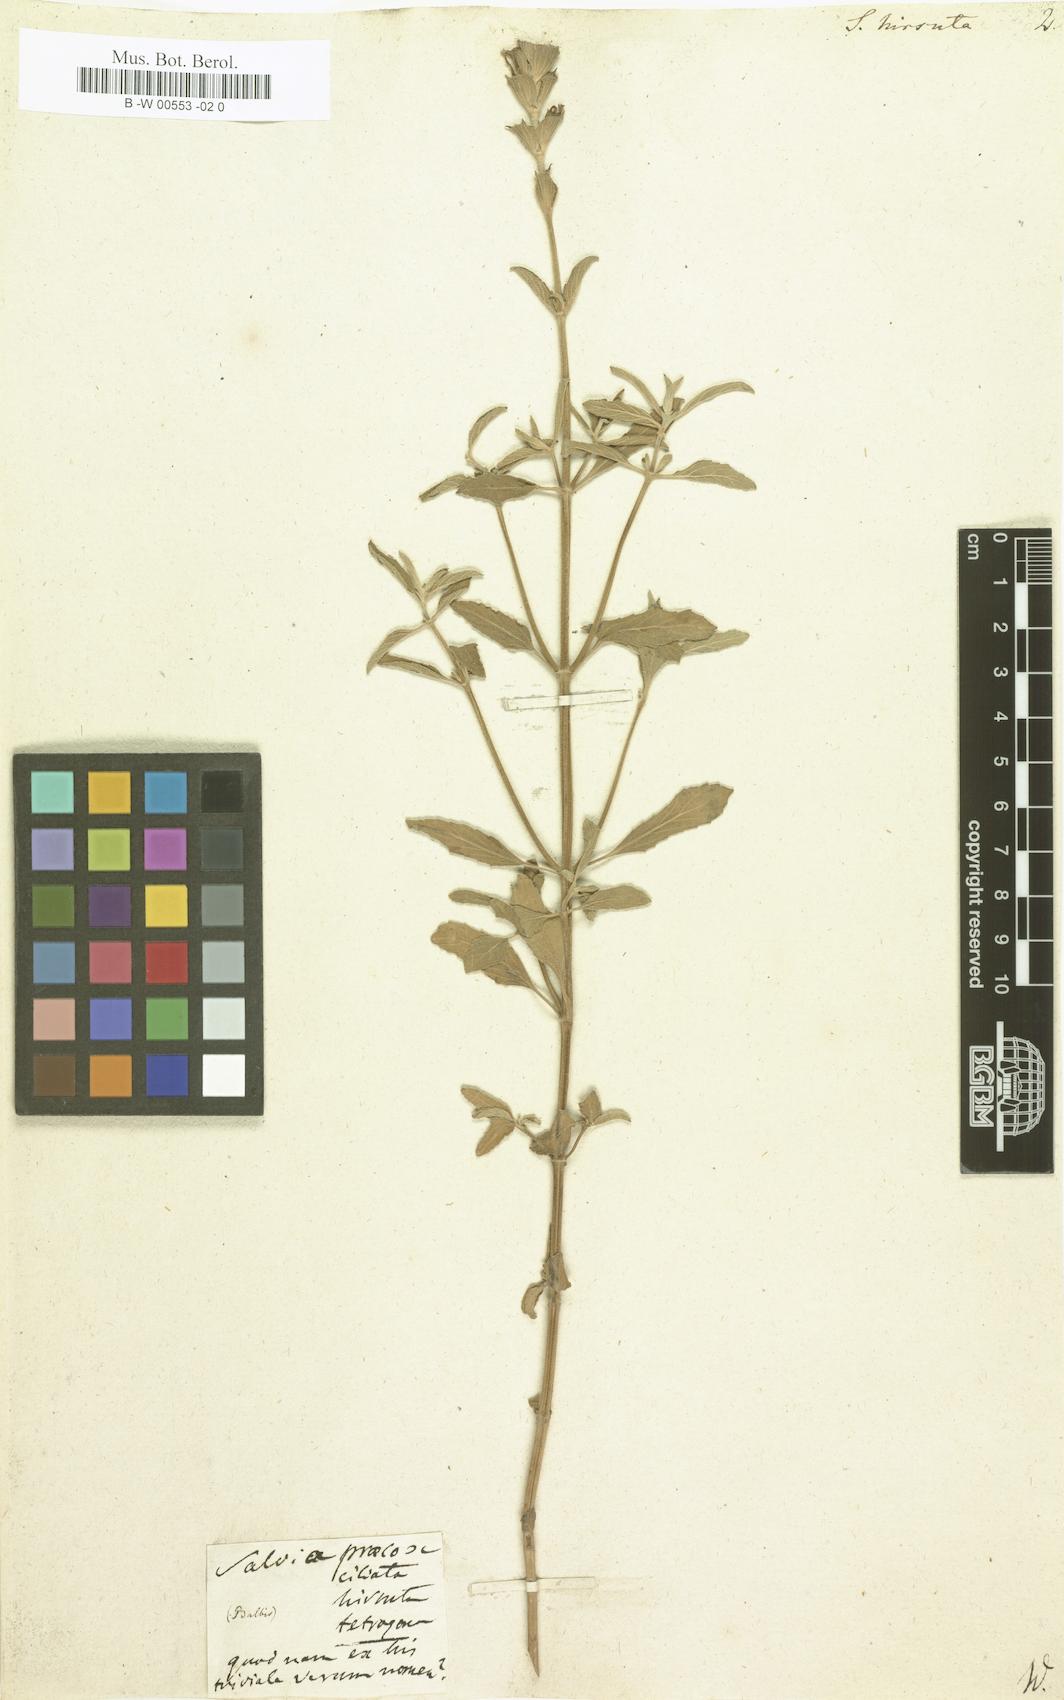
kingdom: Plantae
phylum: Tracheophyta
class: Magnoliopsida
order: Lamiales
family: Lamiaceae
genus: Salvia
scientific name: Salvia hirsuta
